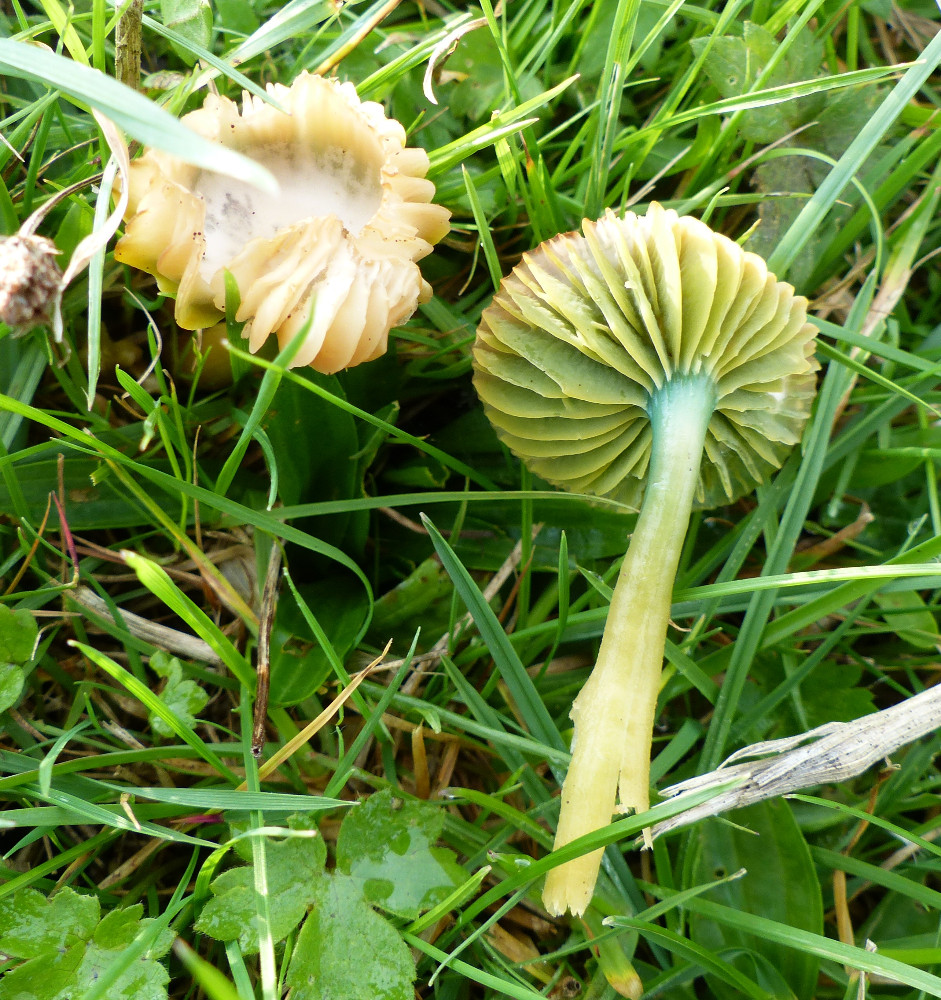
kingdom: Fungi
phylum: Basidiomycota
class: Agaricomycetes
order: Agaricales
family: Hygrophoraceae
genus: Gliophorus
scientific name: Gliophorus psittacinus
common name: papegøje-vokshat
